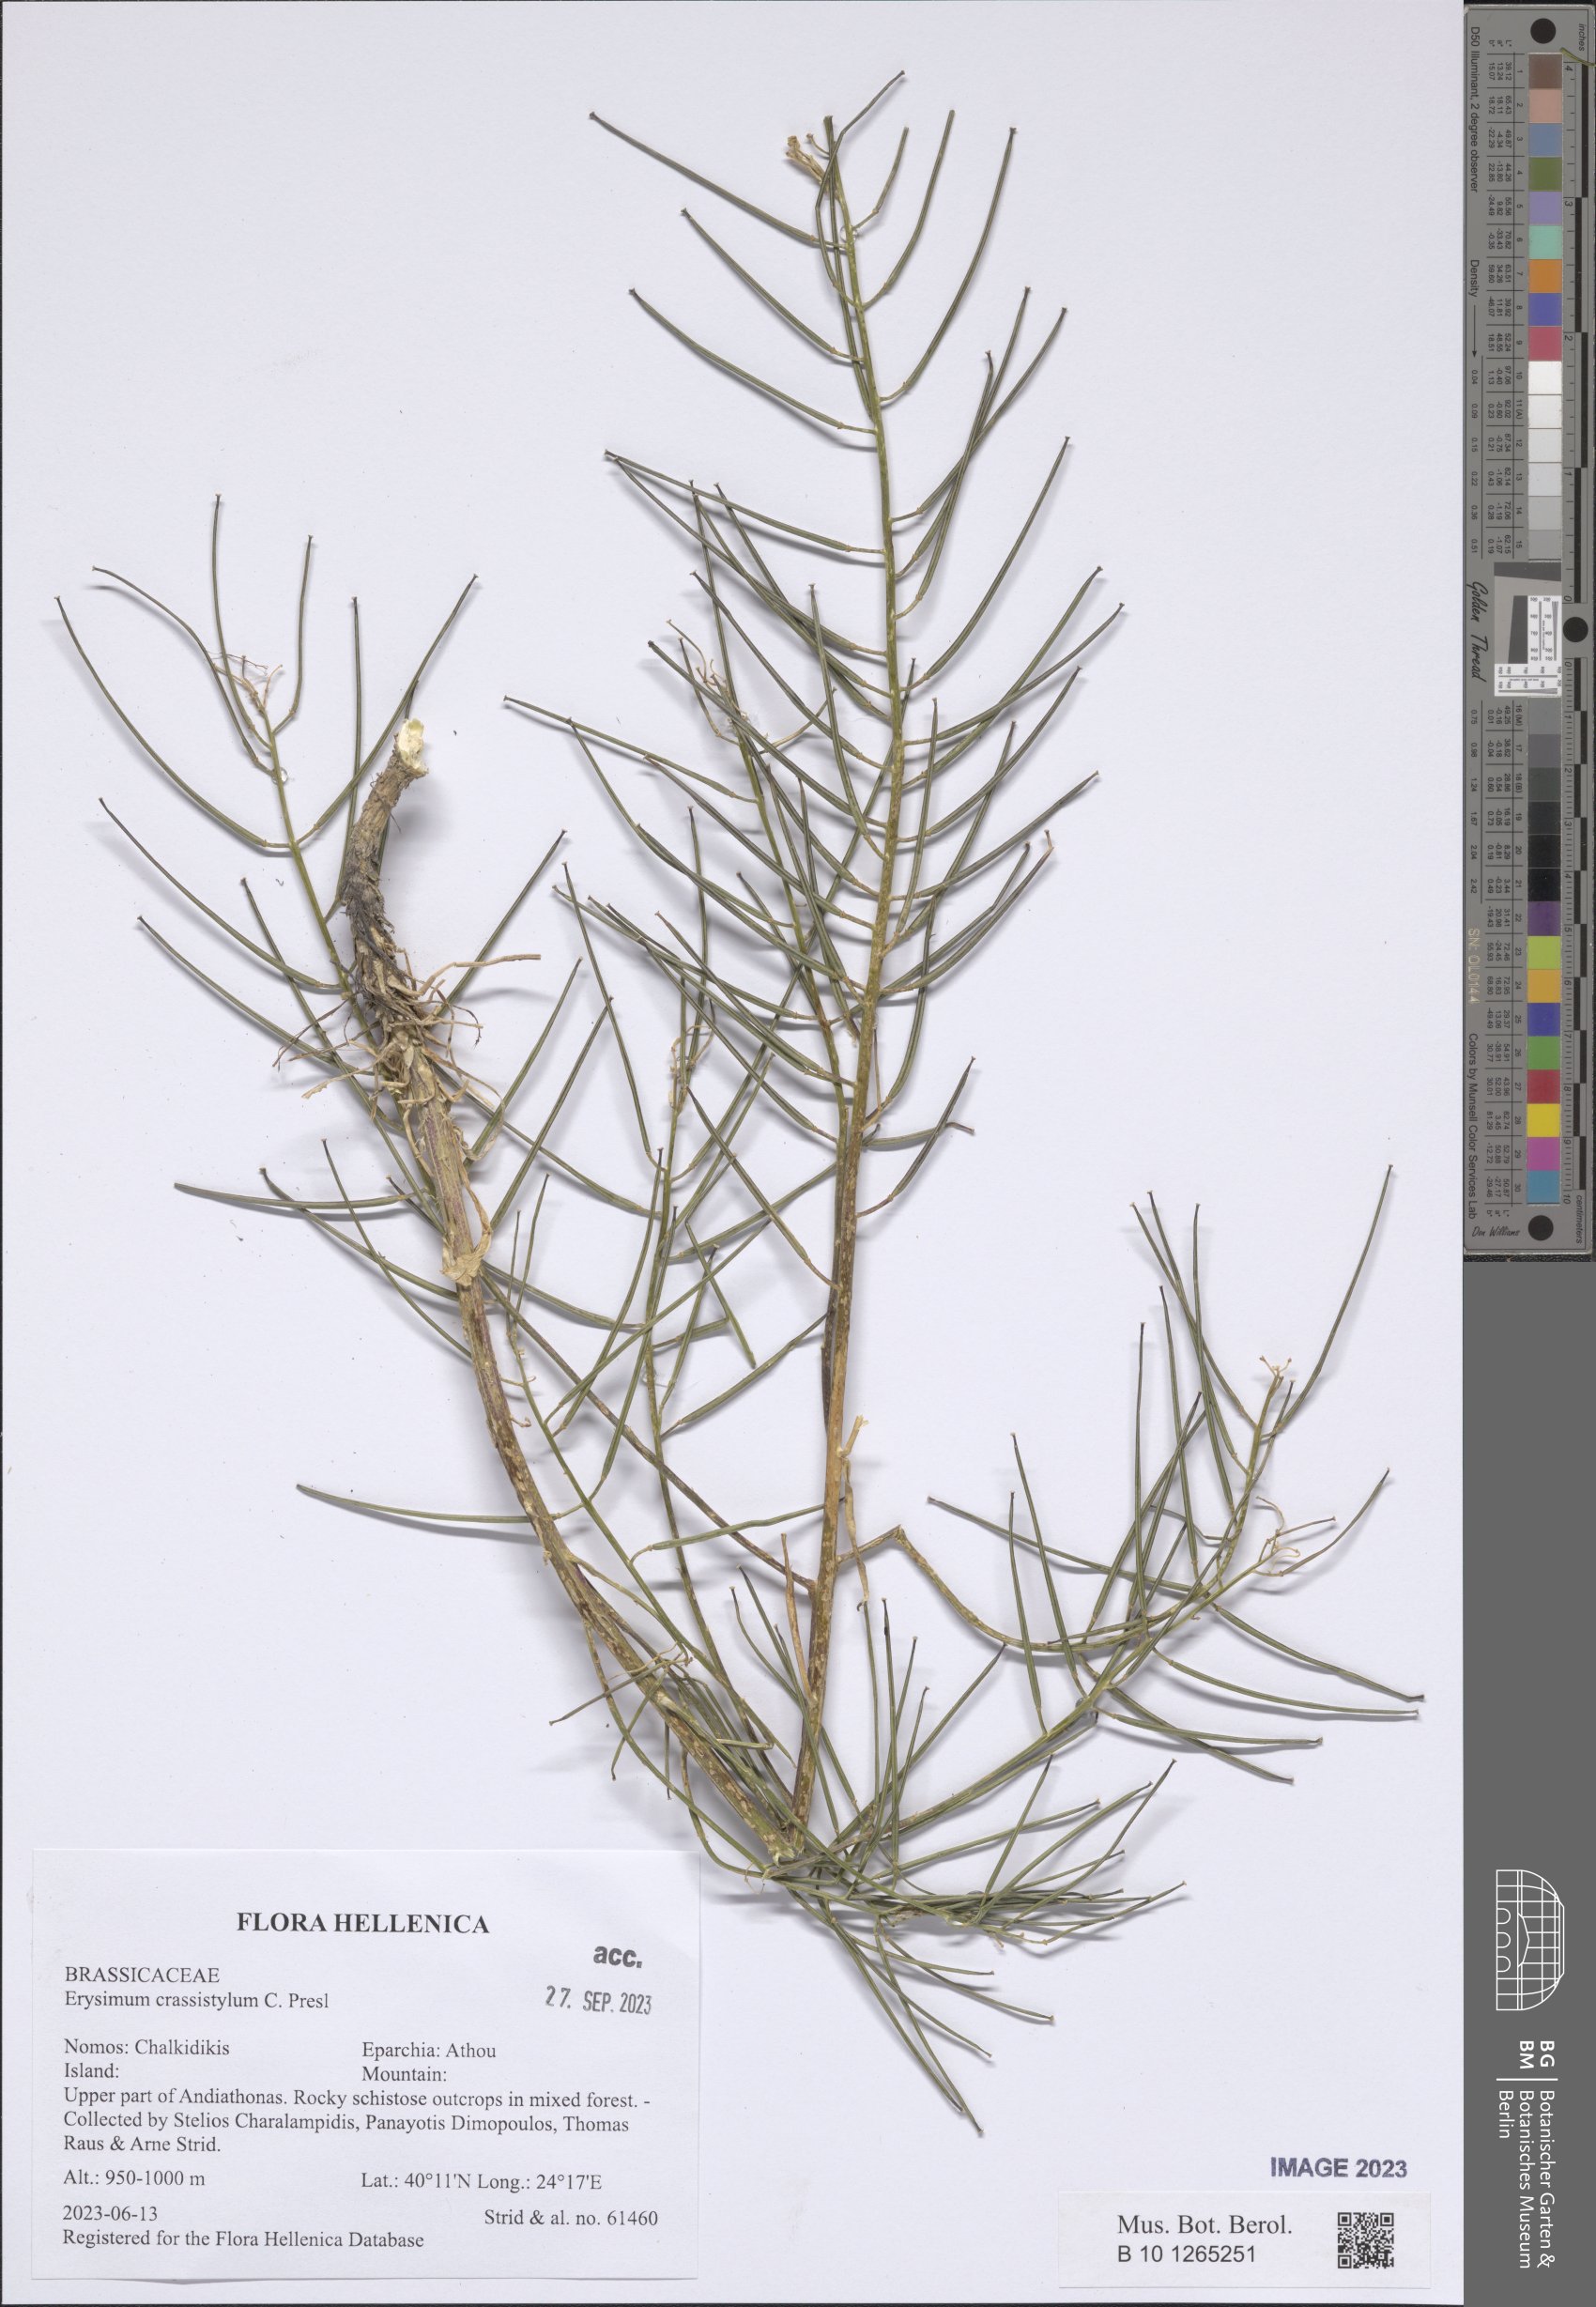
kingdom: Plantae
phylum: Tracheophyta
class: Magnoliopsida
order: Brassicales
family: Brassicaceae
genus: Erysimum
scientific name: Erysimum crassistylum
